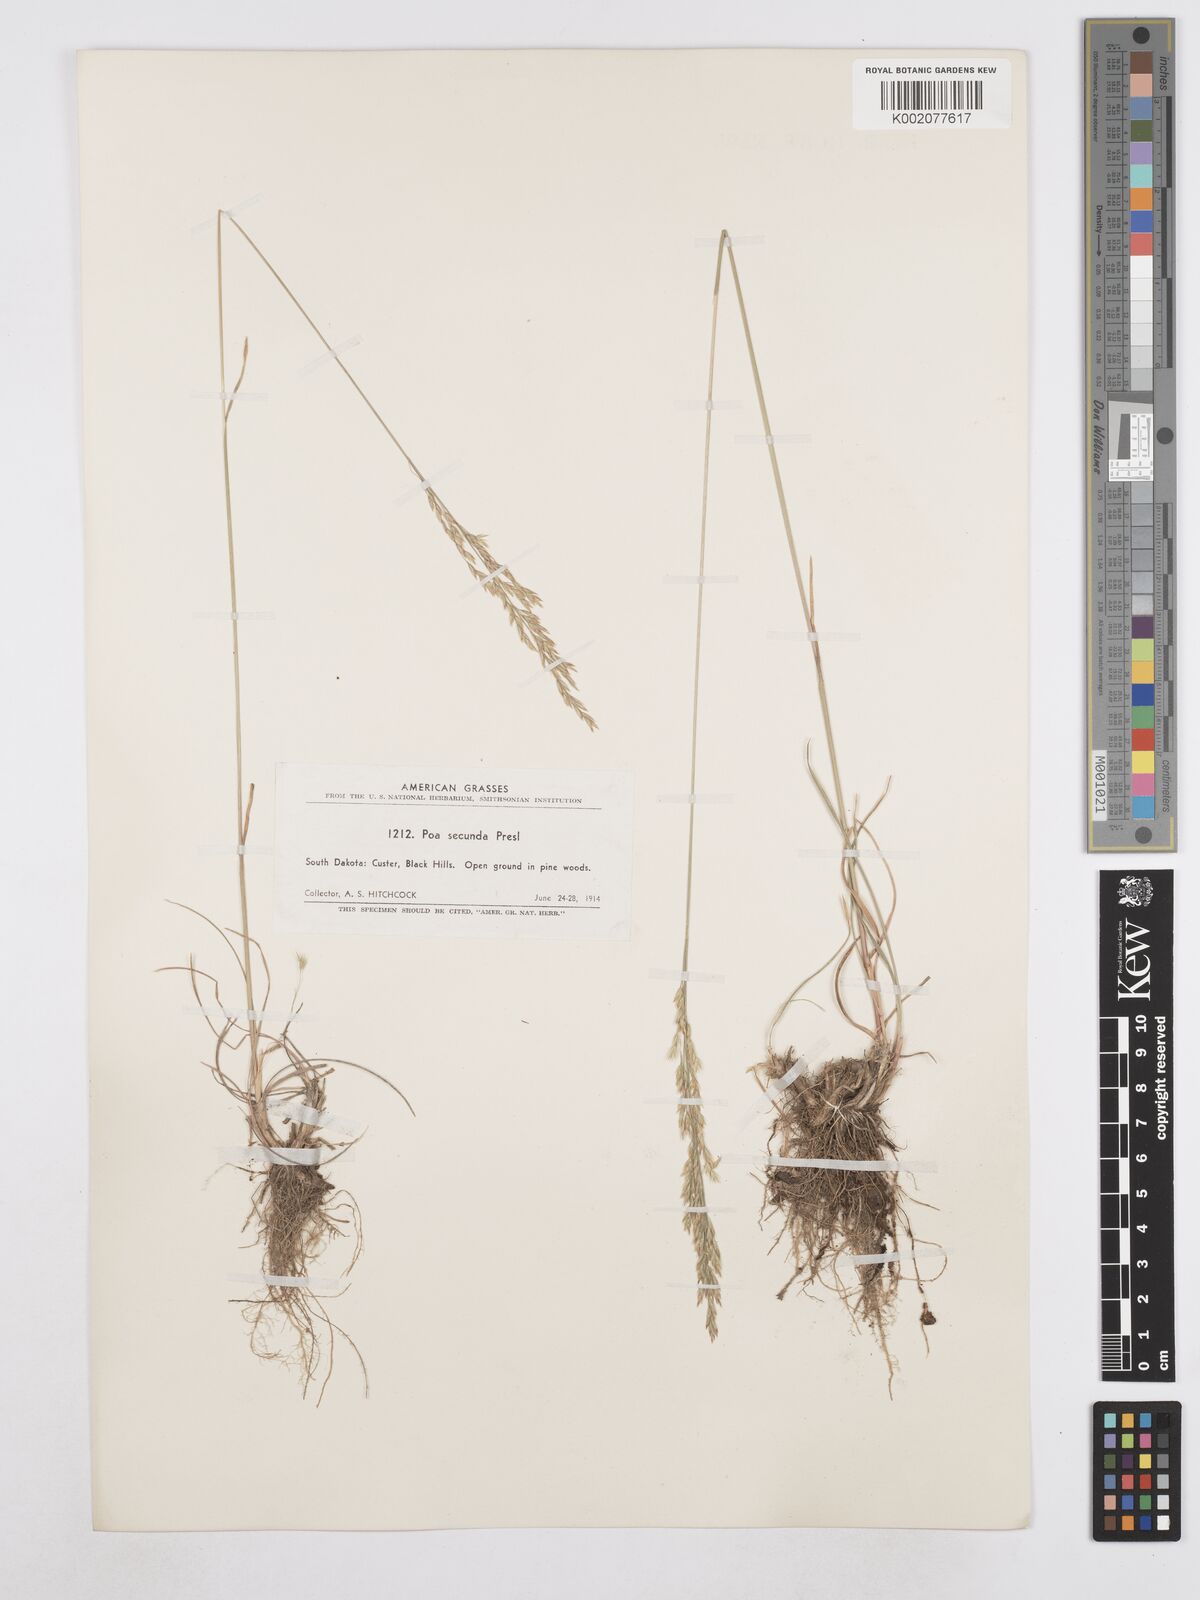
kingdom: Plantae
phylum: Tracheophyta
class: Liliopsida
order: Poales
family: Poaceae
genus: Poa
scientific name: Poa secunda
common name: Sandberg bluegrass
